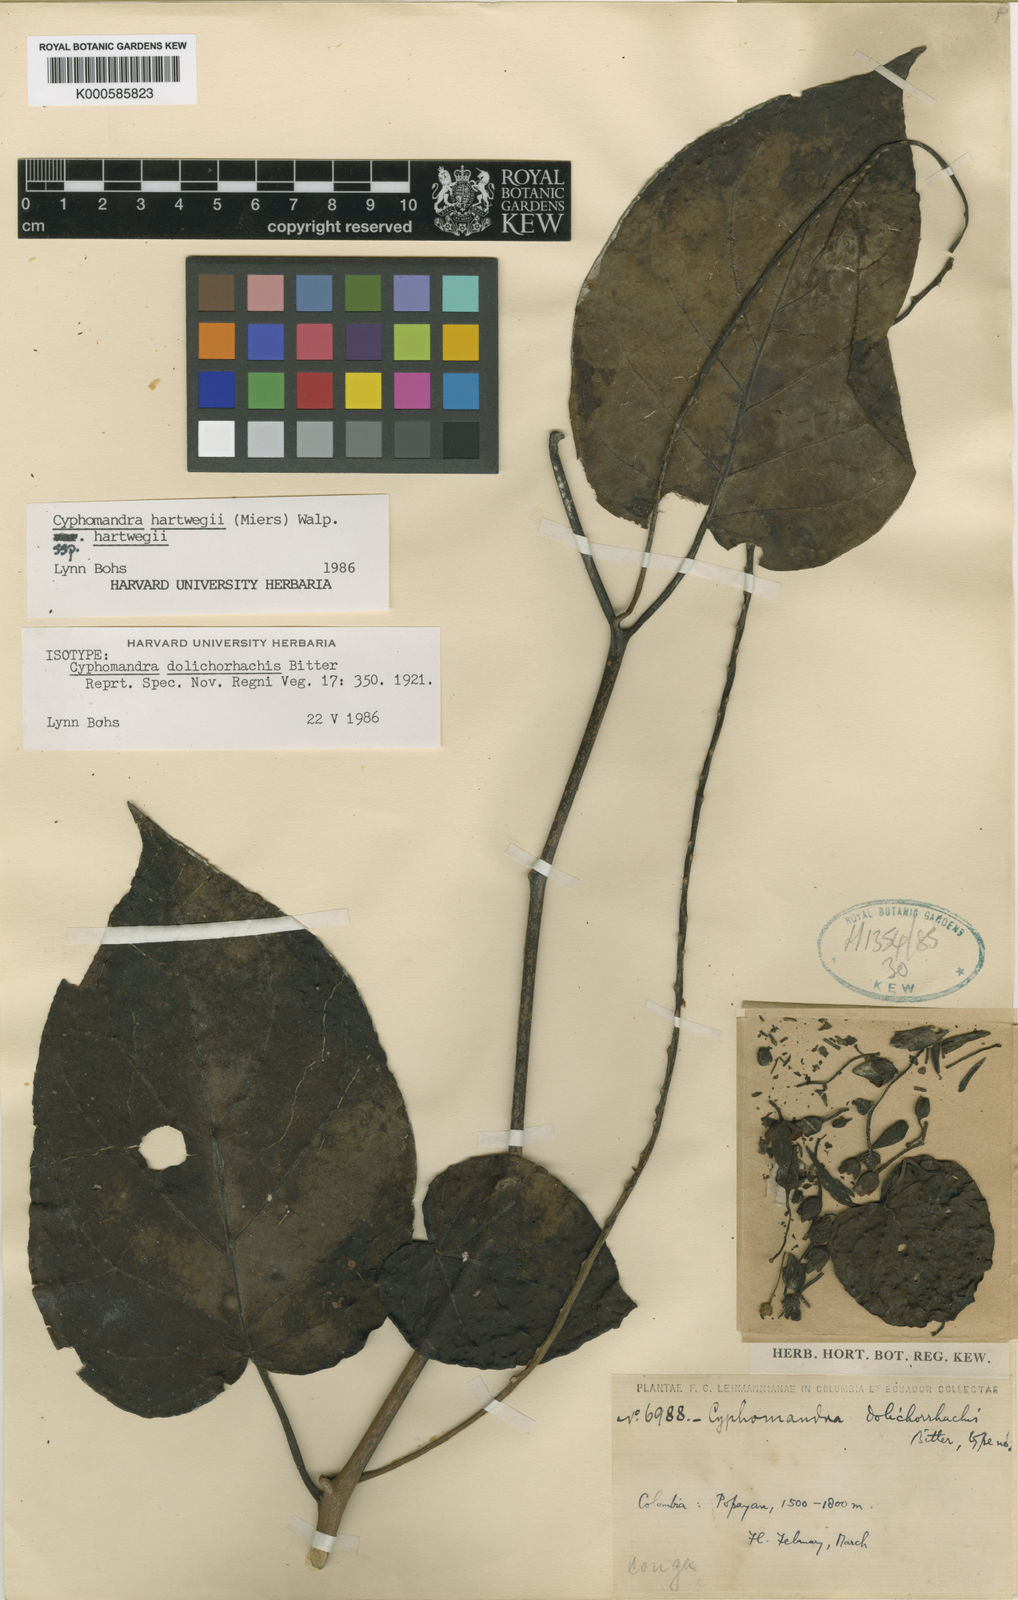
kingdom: Plantae
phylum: Tracheophyta
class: Magnoliopsida
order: Solanales
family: Solanaceae
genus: Solanum
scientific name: Solanum splendens
